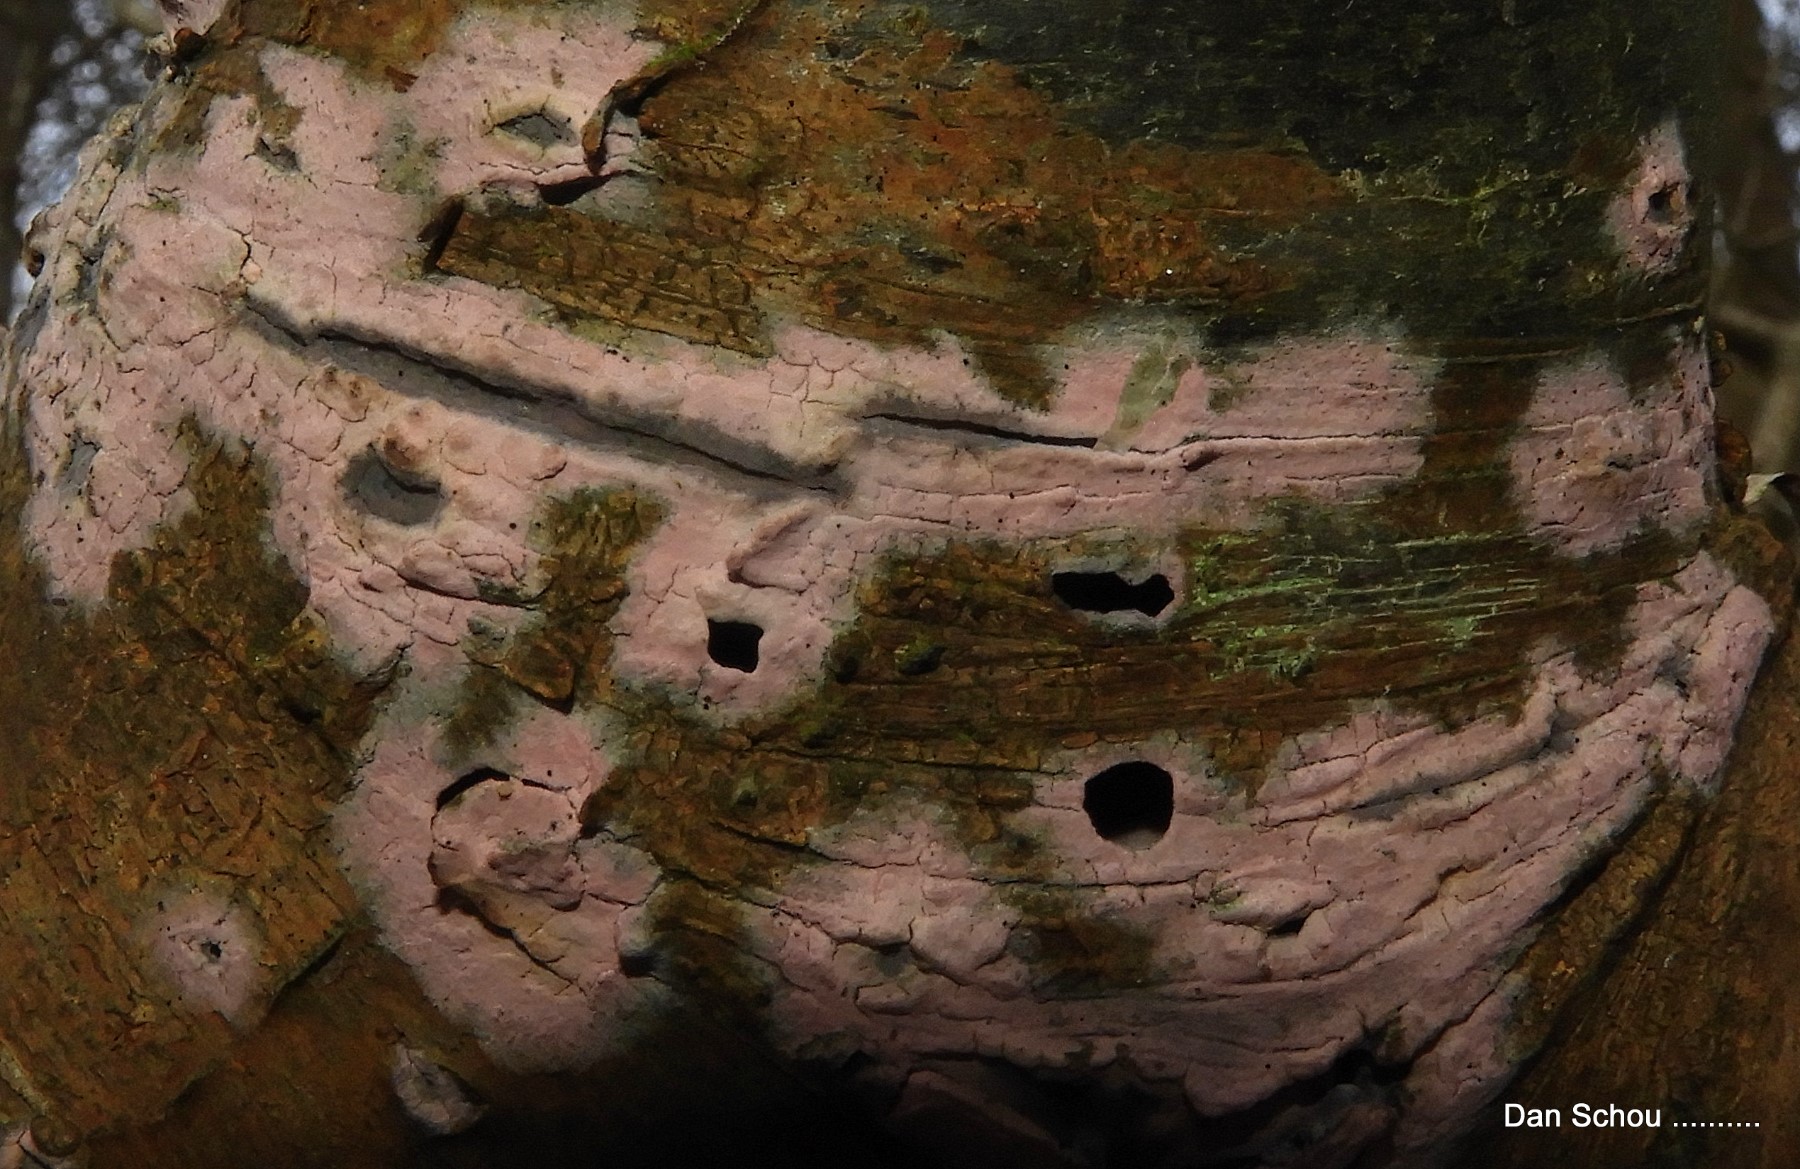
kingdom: Fungi
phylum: Basidiomycota
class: Agaricomycetes
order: Corticiales
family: Corticiaceae
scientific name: Corticiaceae
